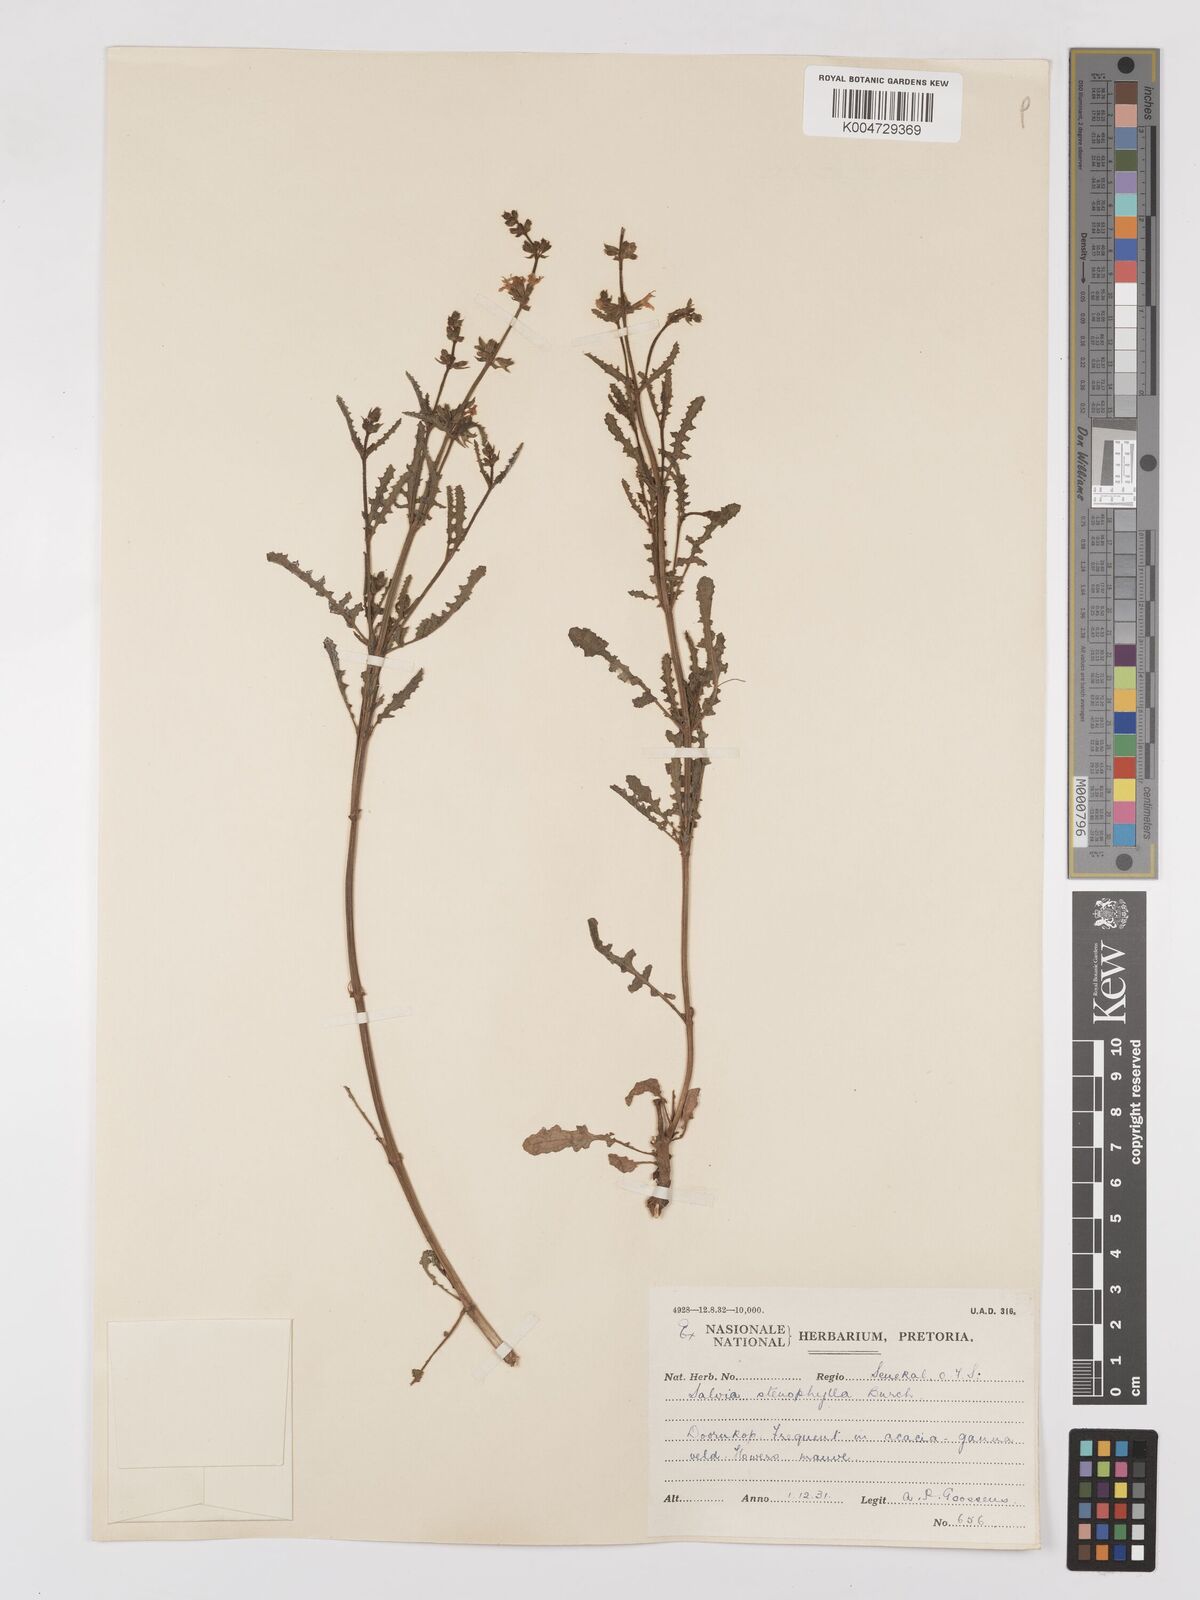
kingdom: Plantae
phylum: Tracheophyta
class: Magnoliopsida
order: Lamiales
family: Lamiaceae
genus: Salvia
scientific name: Salvia stenophylla
